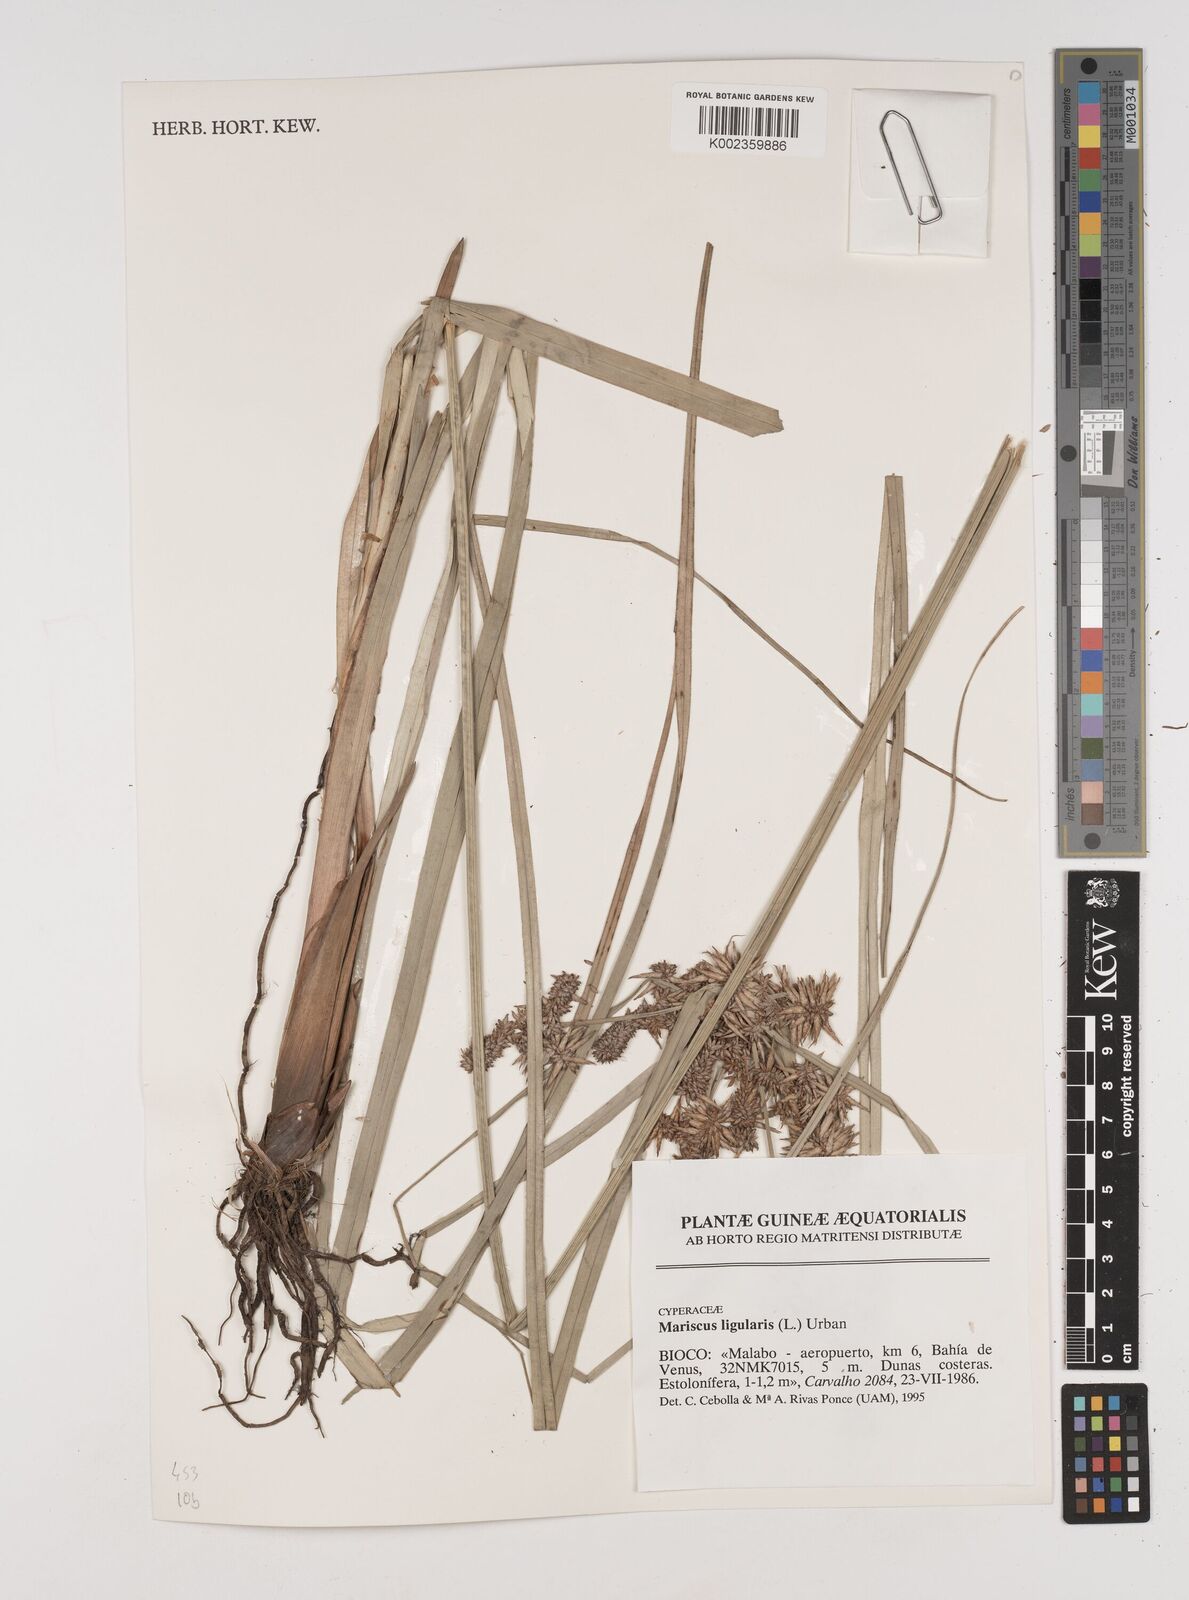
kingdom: Plantae
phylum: Tracheophyta
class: Liliopsida
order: Poales
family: Cyperaceae
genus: Cyperus
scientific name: Cyperus ligularis
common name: Swamp flat sedge
